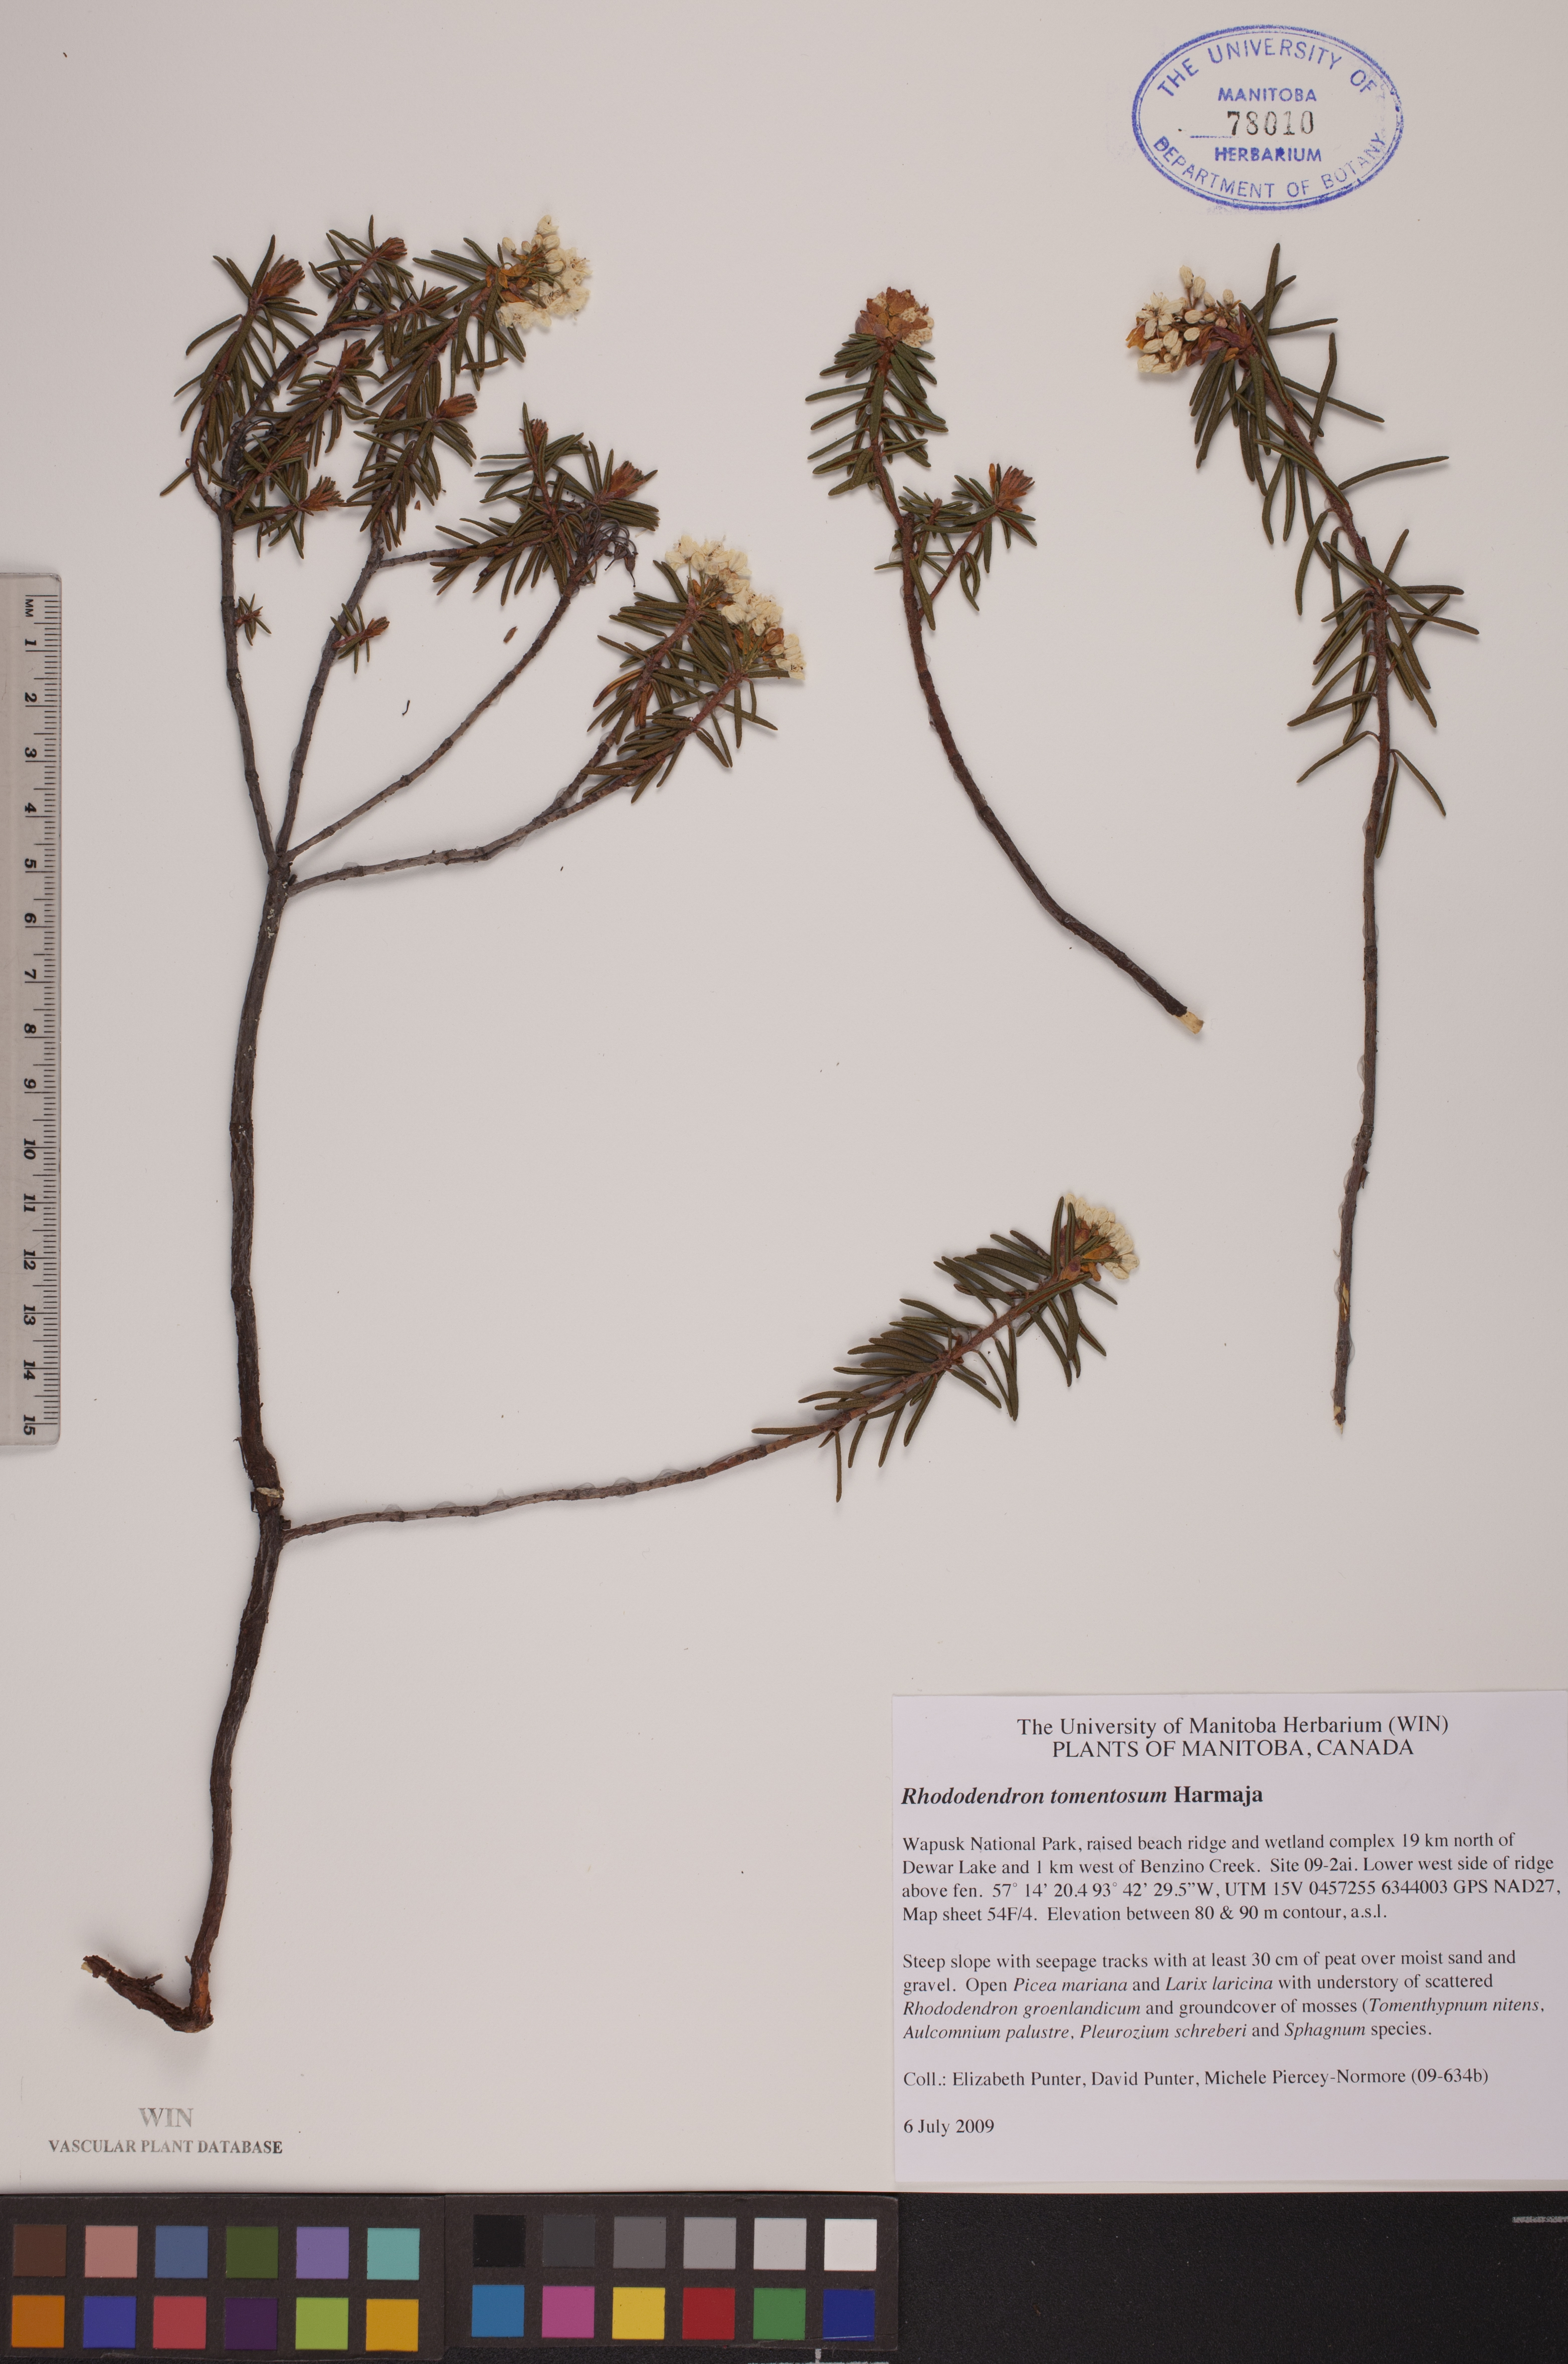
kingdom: Plantae
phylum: Tracheophyta
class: Magnoliopsida
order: Ericales
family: Ericaceae
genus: Rhododendron
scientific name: Rhododendron tomentosum
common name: Marsh labrador tea
